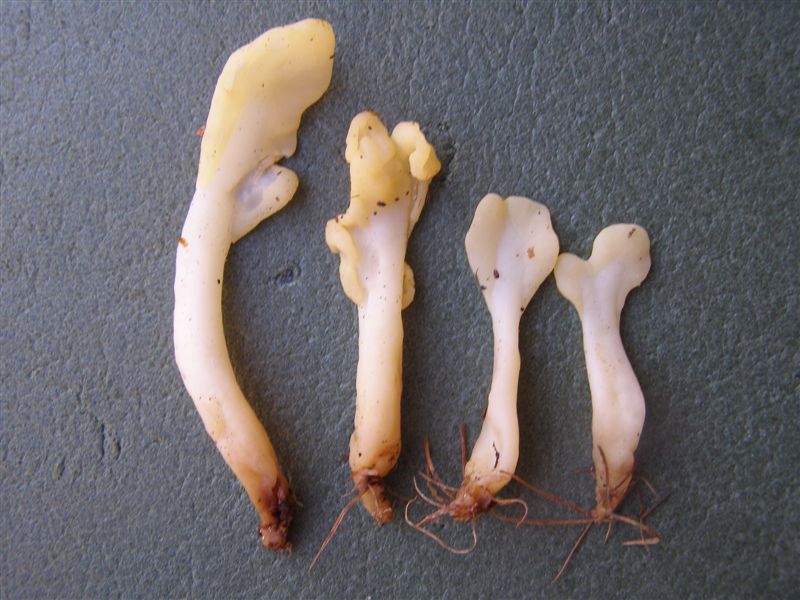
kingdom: Fungi
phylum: Ascomycota
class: Leotiomycetes
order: Rhytismatales
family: Cudoniaceae
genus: Spathularia
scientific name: Spathularia flavida
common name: gul spatelsvamp
